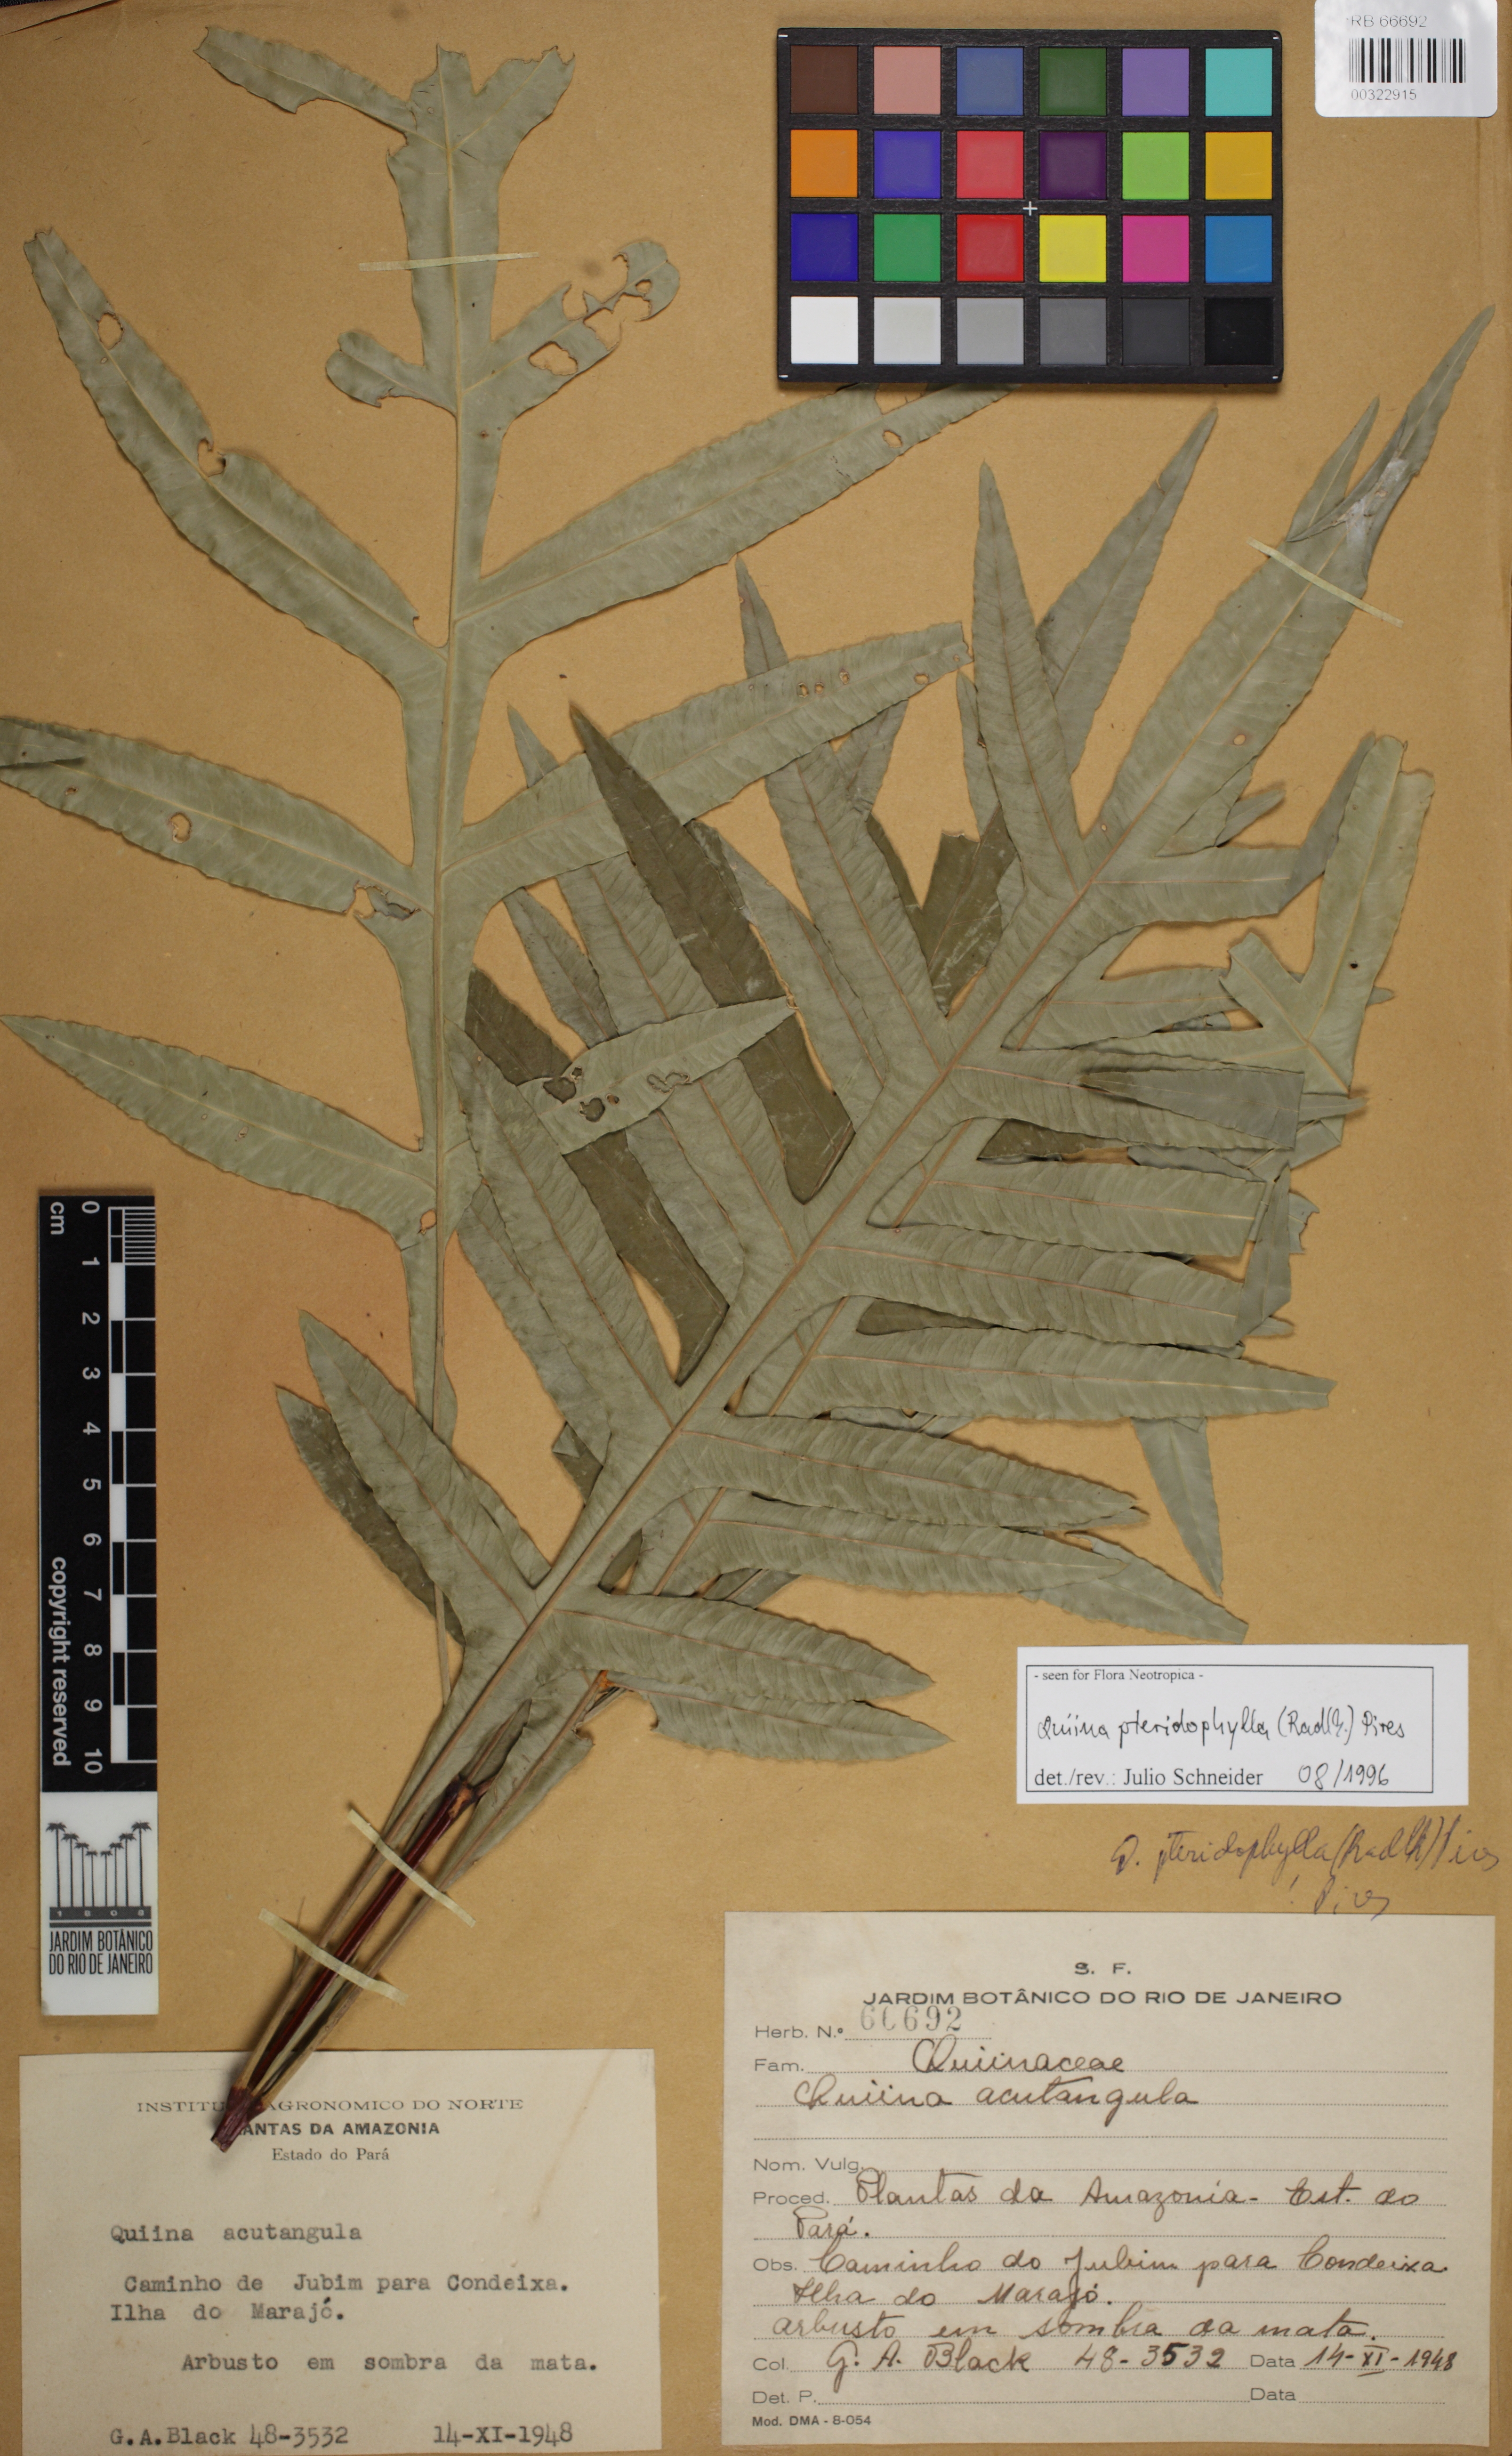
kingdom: Plantae
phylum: Tracheophyta
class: Magnoliopsida
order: Malpighiales
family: Quiinaceae
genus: Quiina
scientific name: Quiina pteridophylla
